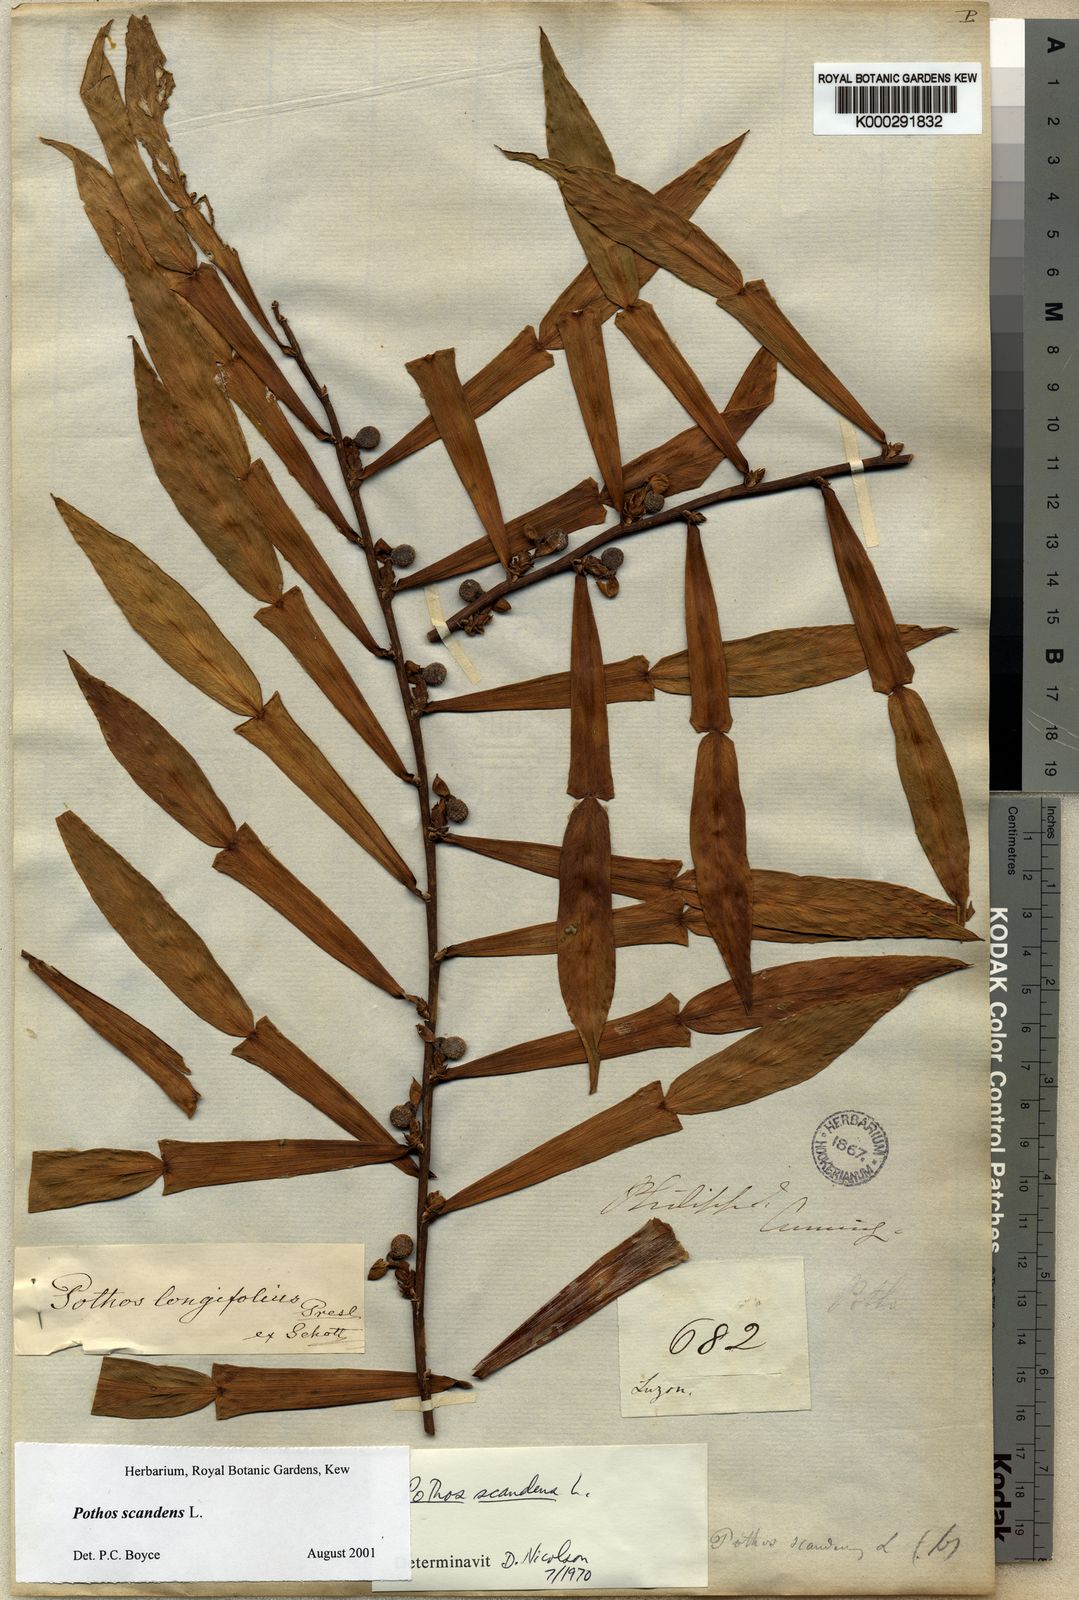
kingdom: Plantae
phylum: Tracheophyta
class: Liliopsida
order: Alismatales
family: Araceae
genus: Pothos
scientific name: Pothos scandens
